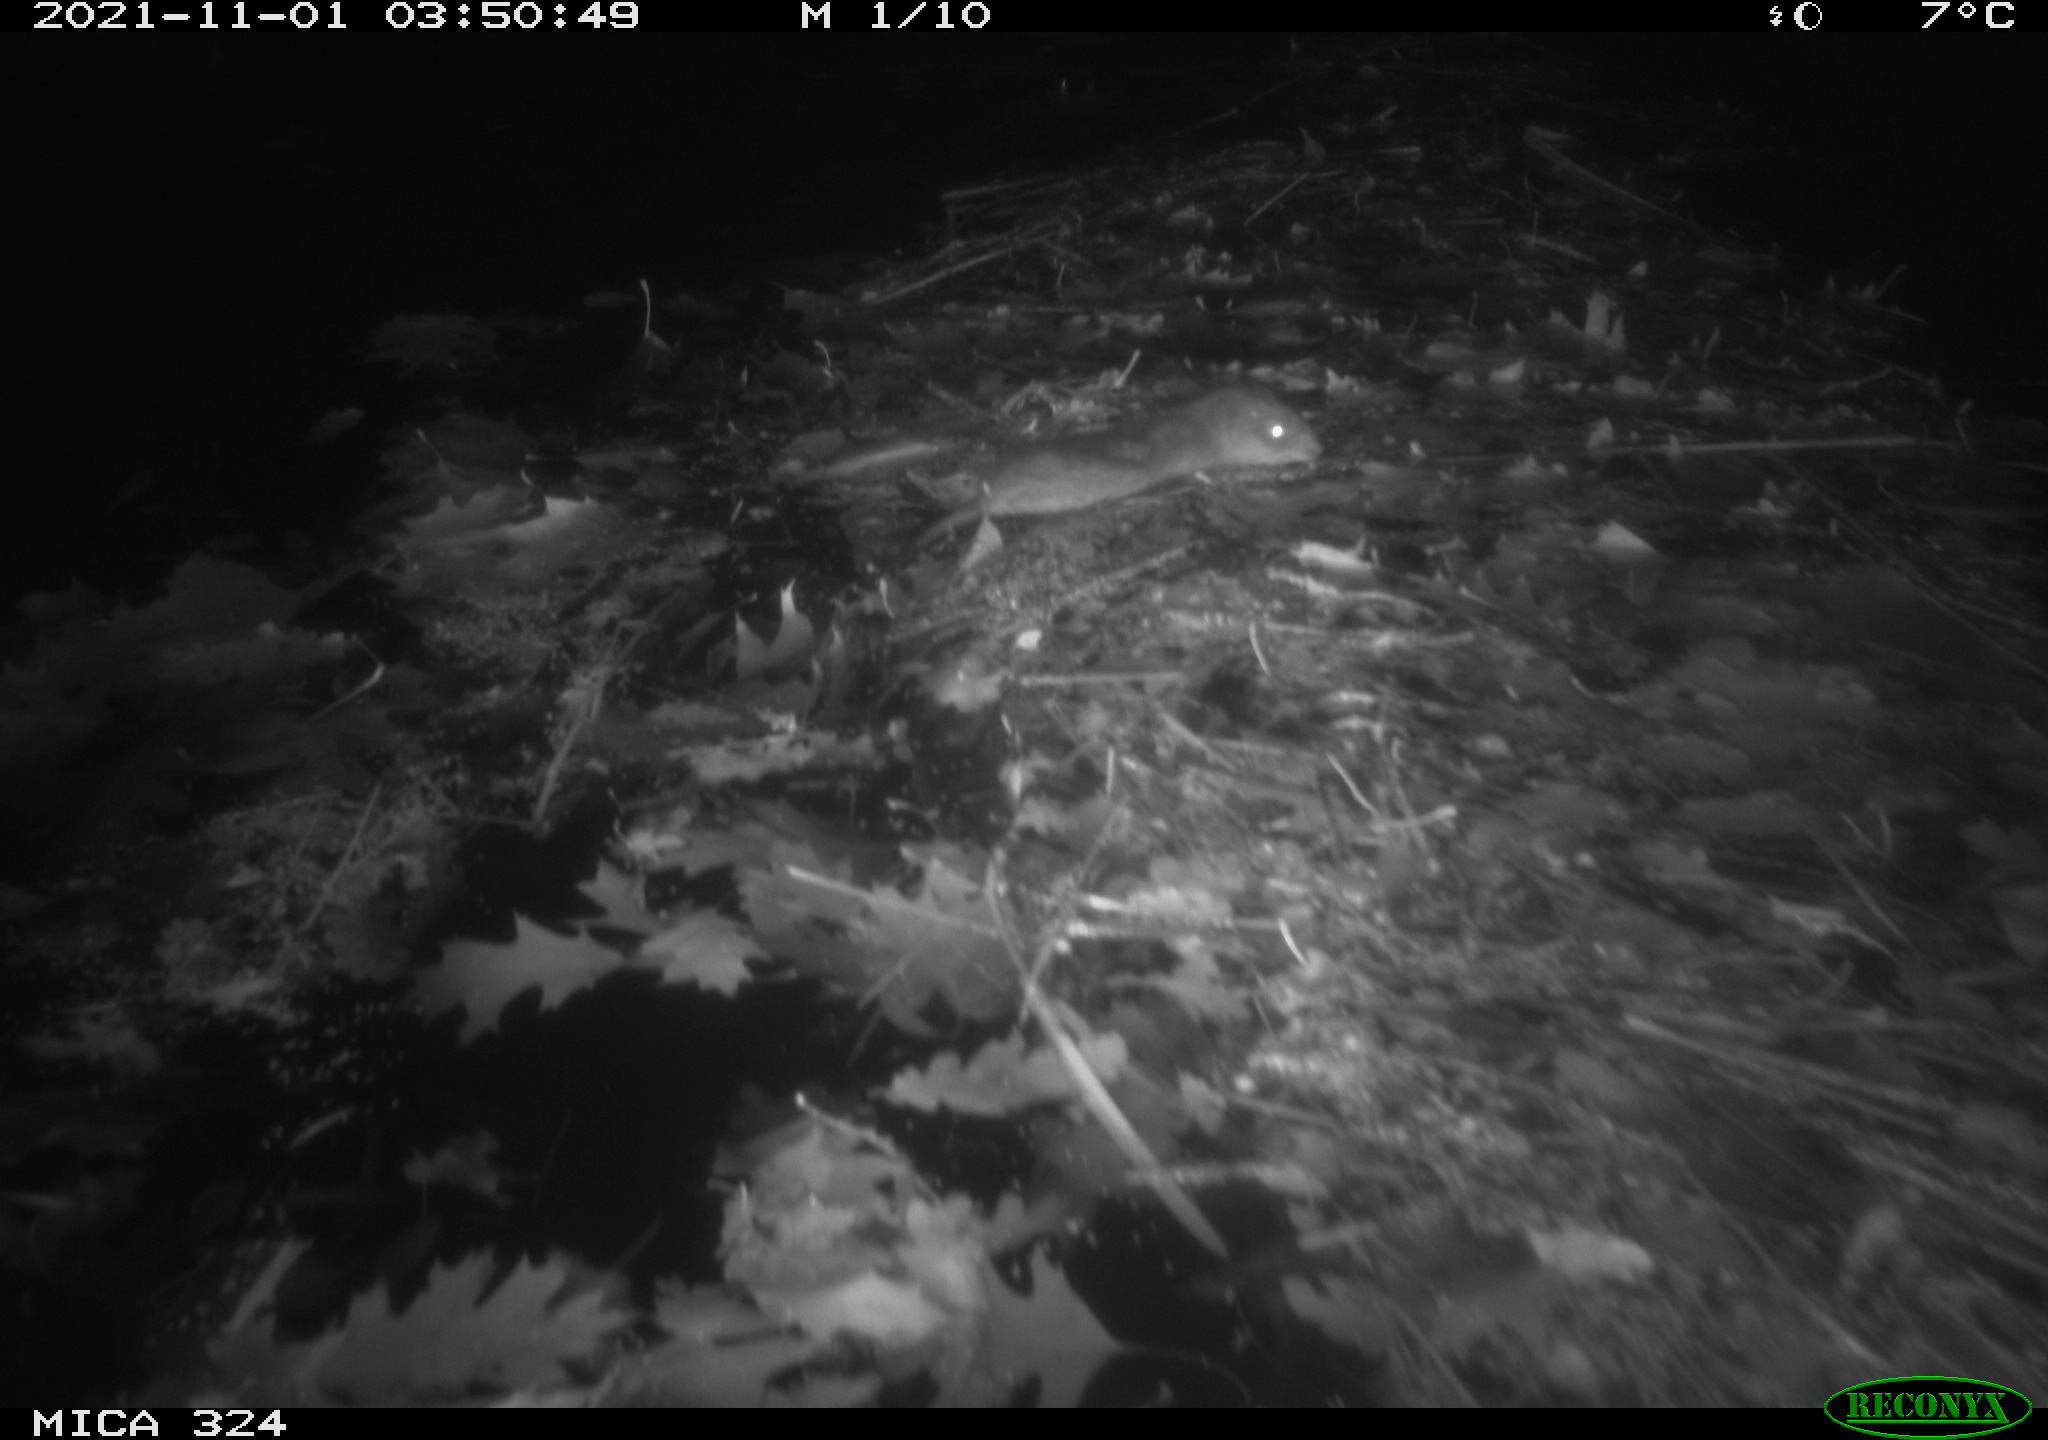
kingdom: Animalia
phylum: Chordata
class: Mammalia
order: Rodentia
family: Cricetidae
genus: Ondatra
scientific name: Ondatra zibethicus
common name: Muskrat
